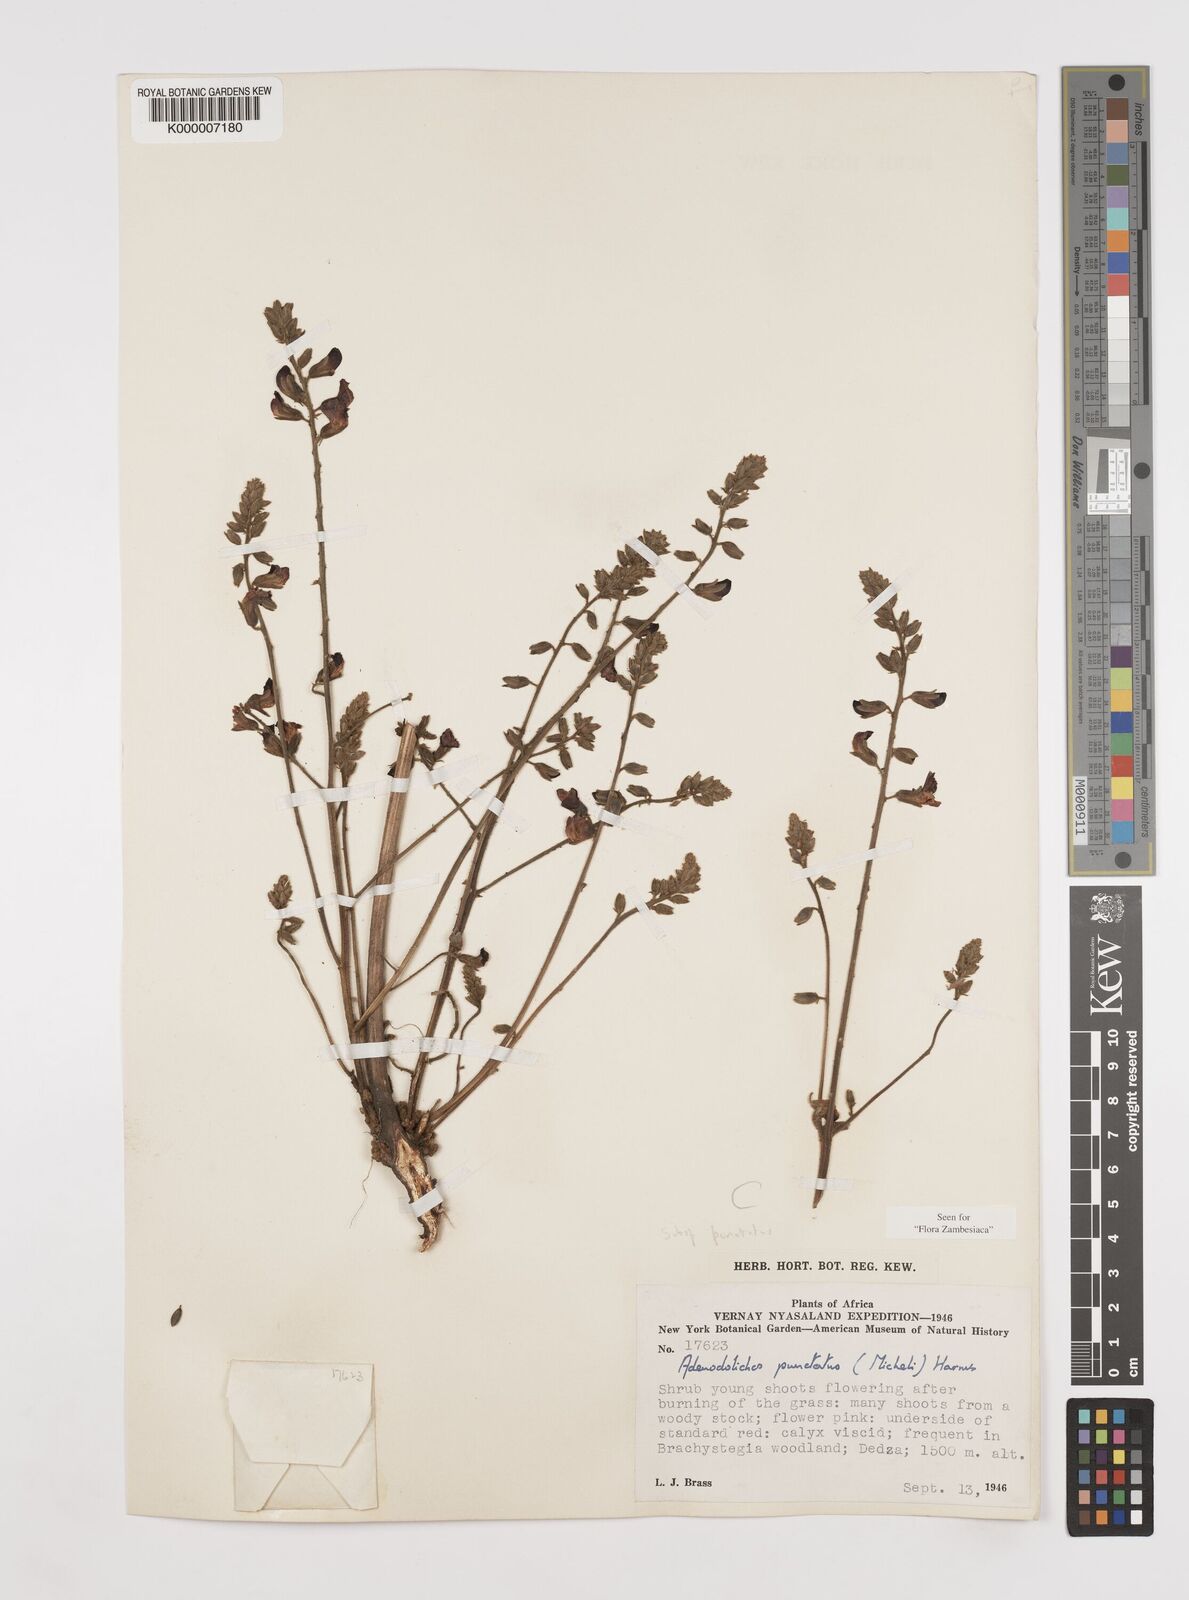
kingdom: Plantae
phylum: Tracheophyta
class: Magnoliopsida
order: Fabales
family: Fabaceae
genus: Adenodolichos
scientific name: Adenodolichos punctatus
